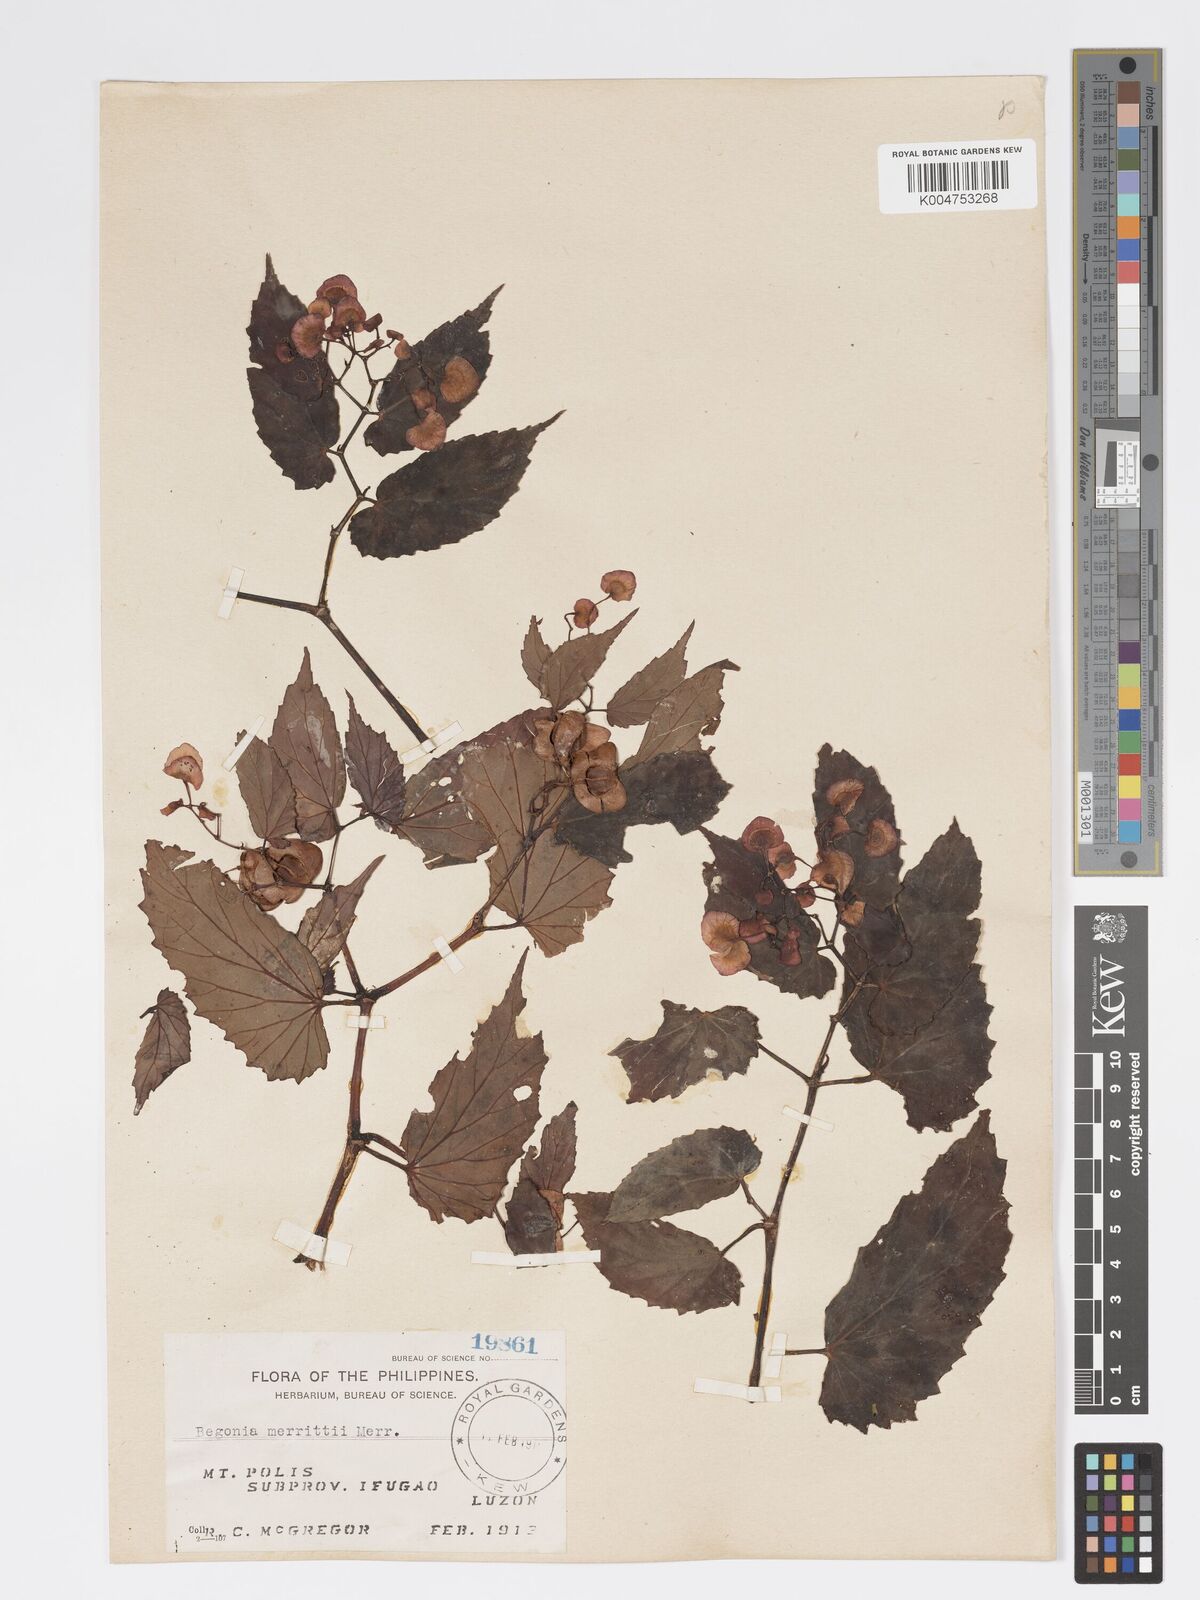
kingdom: Plantae
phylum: Tracheophyta
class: Magnoliopsida
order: Cucurbitales
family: Begoniaceae
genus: Begonia
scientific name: Begonia merrittii
